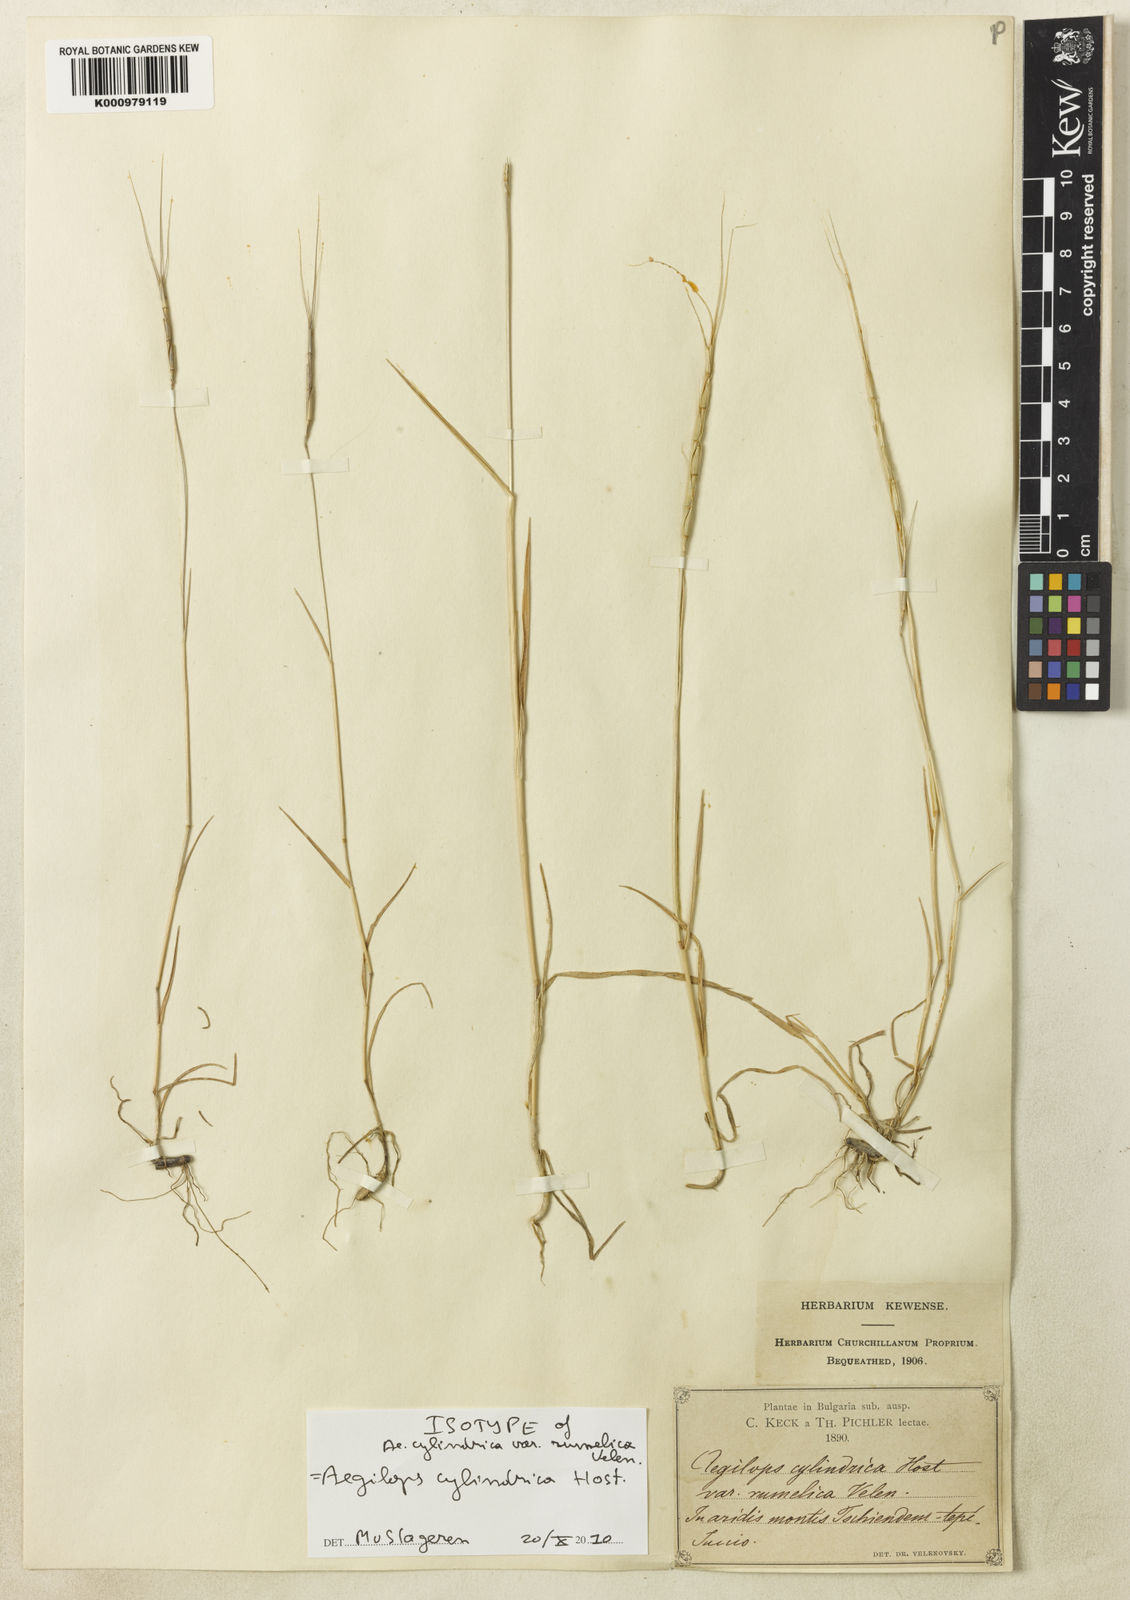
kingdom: Plantae
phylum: Tracheophyta
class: Liliopsida
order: Poales
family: Poaceae
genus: Aegilops
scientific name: Aegilops cylindrica
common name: Jointed goatgrass
